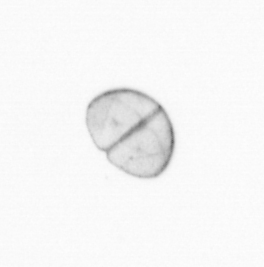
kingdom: Chromista
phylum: Ochrophyta
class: Bacillariophyceae
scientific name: Bacillariophyceae
